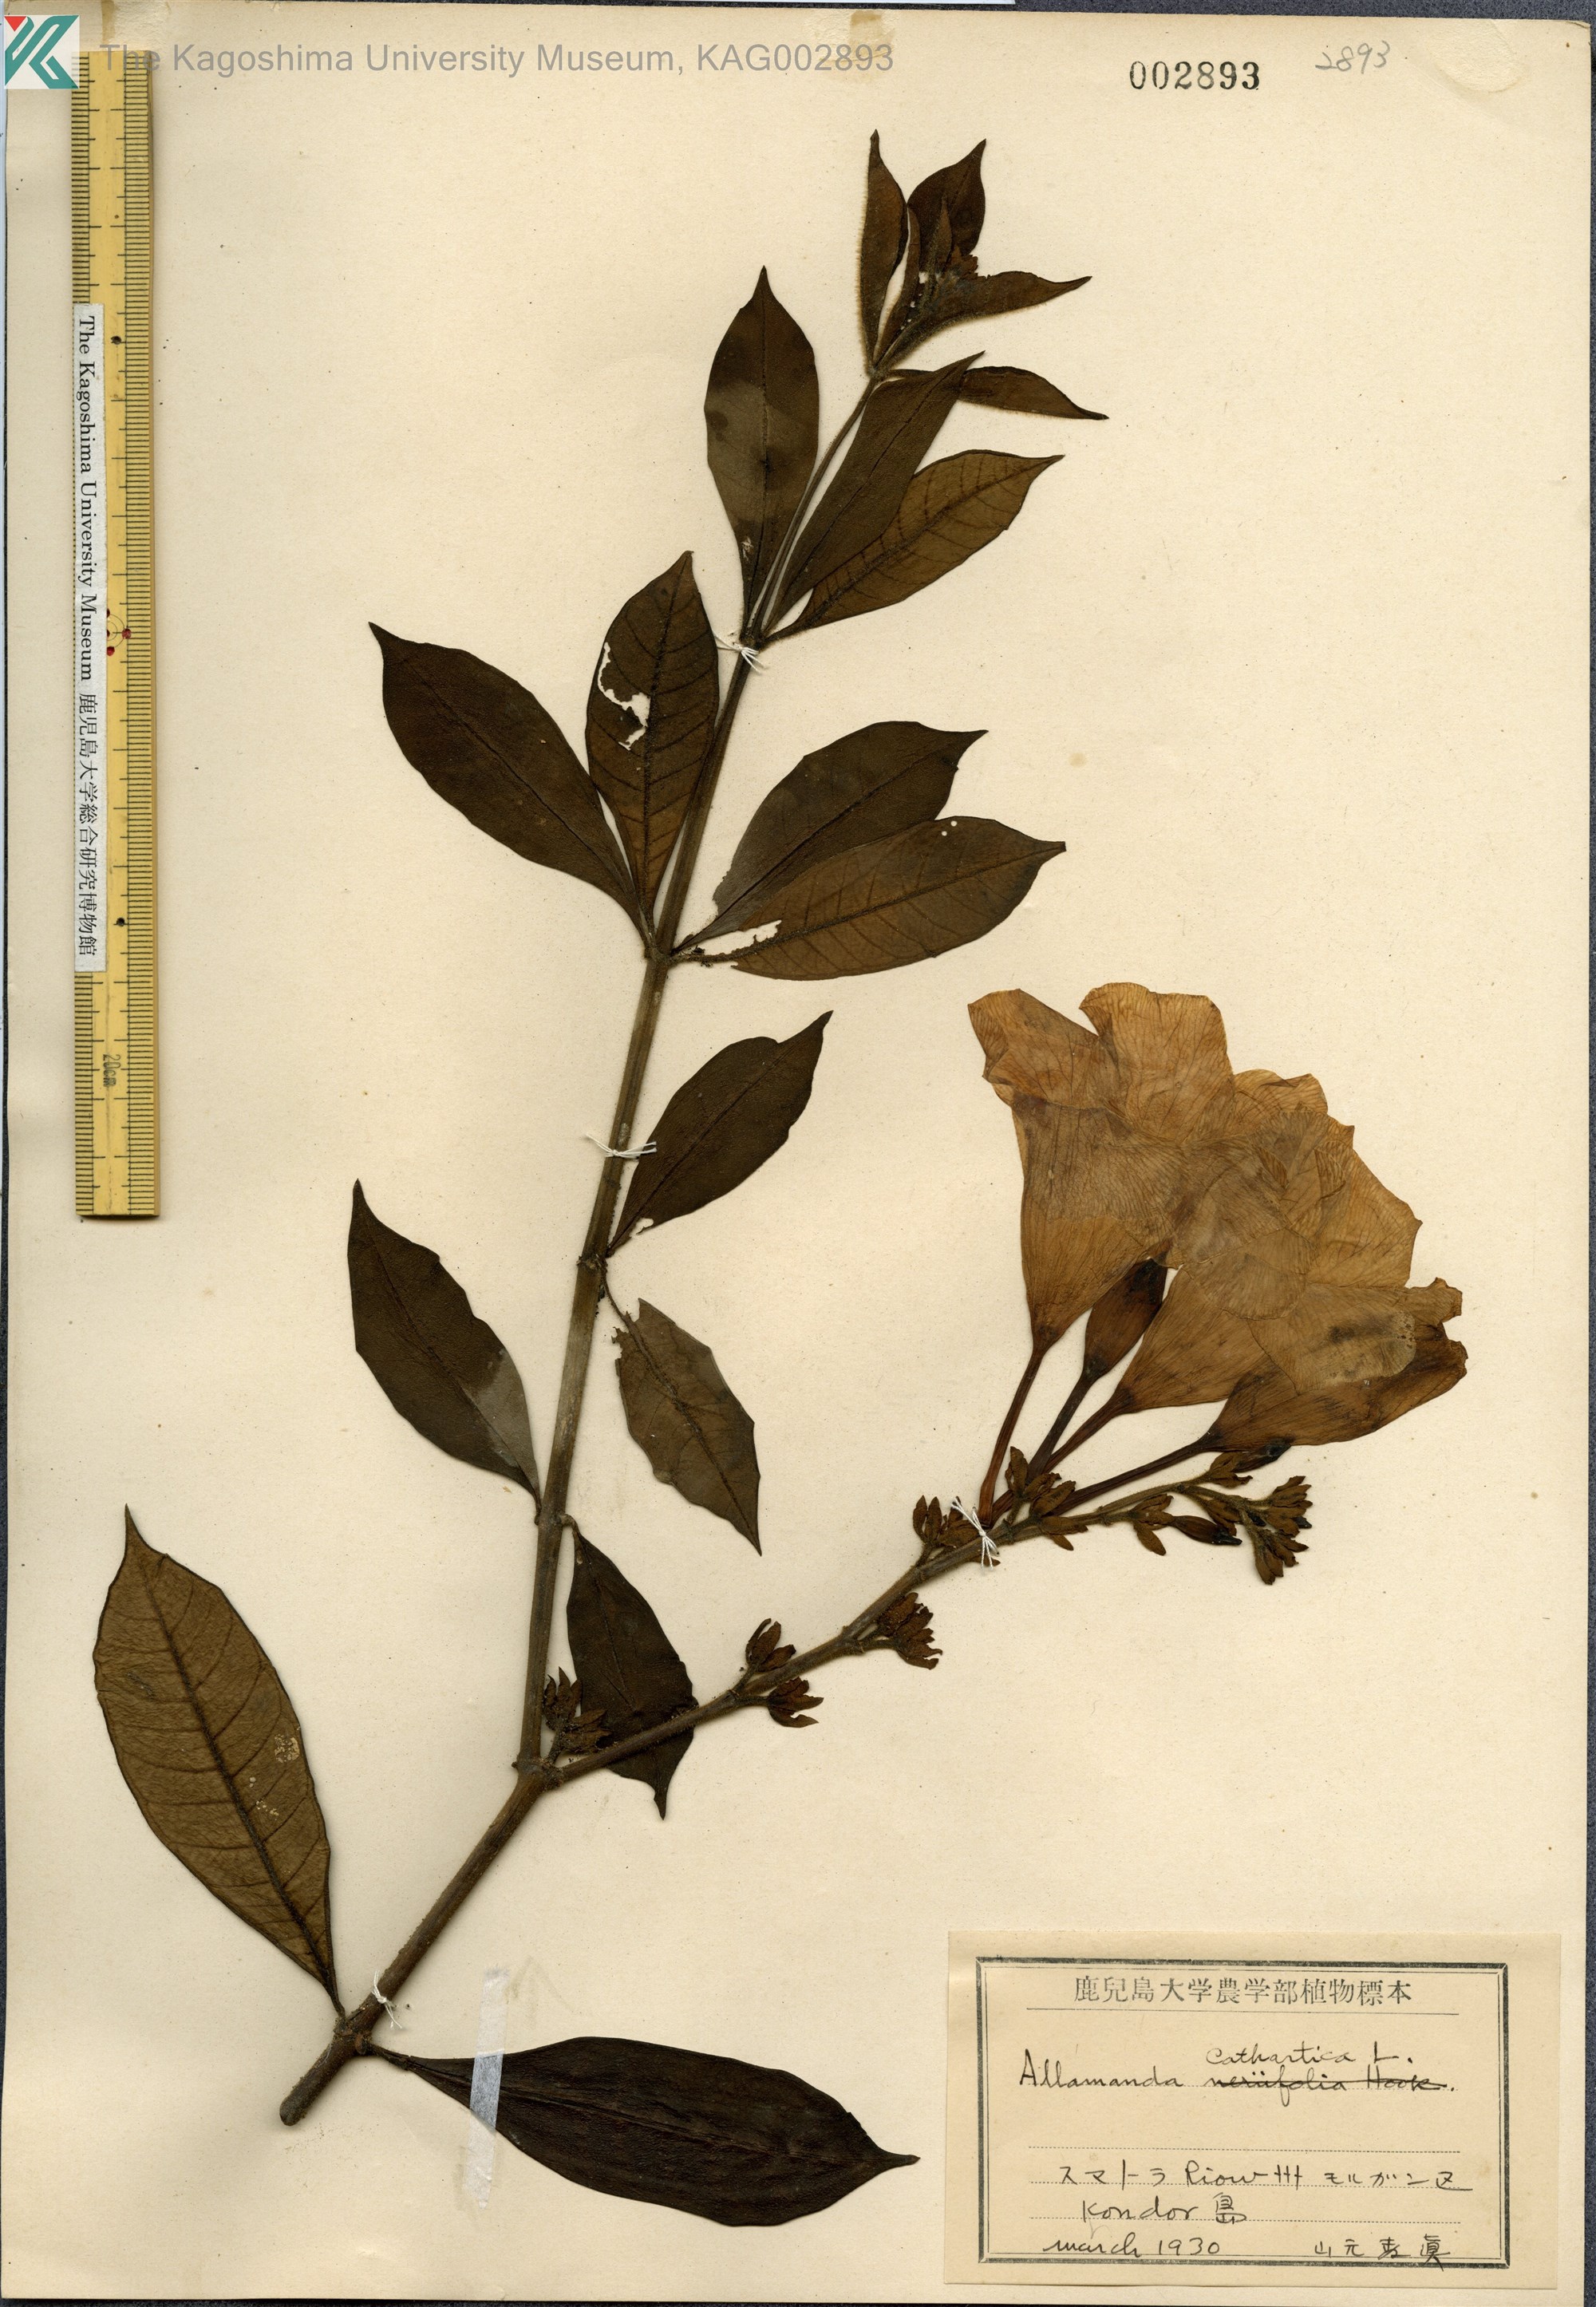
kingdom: Plantae
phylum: Tracheophyta
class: Magnoliopsida
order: Gentianales
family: Apocynaceae
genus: Allamanda
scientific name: Allamanda cathartica
